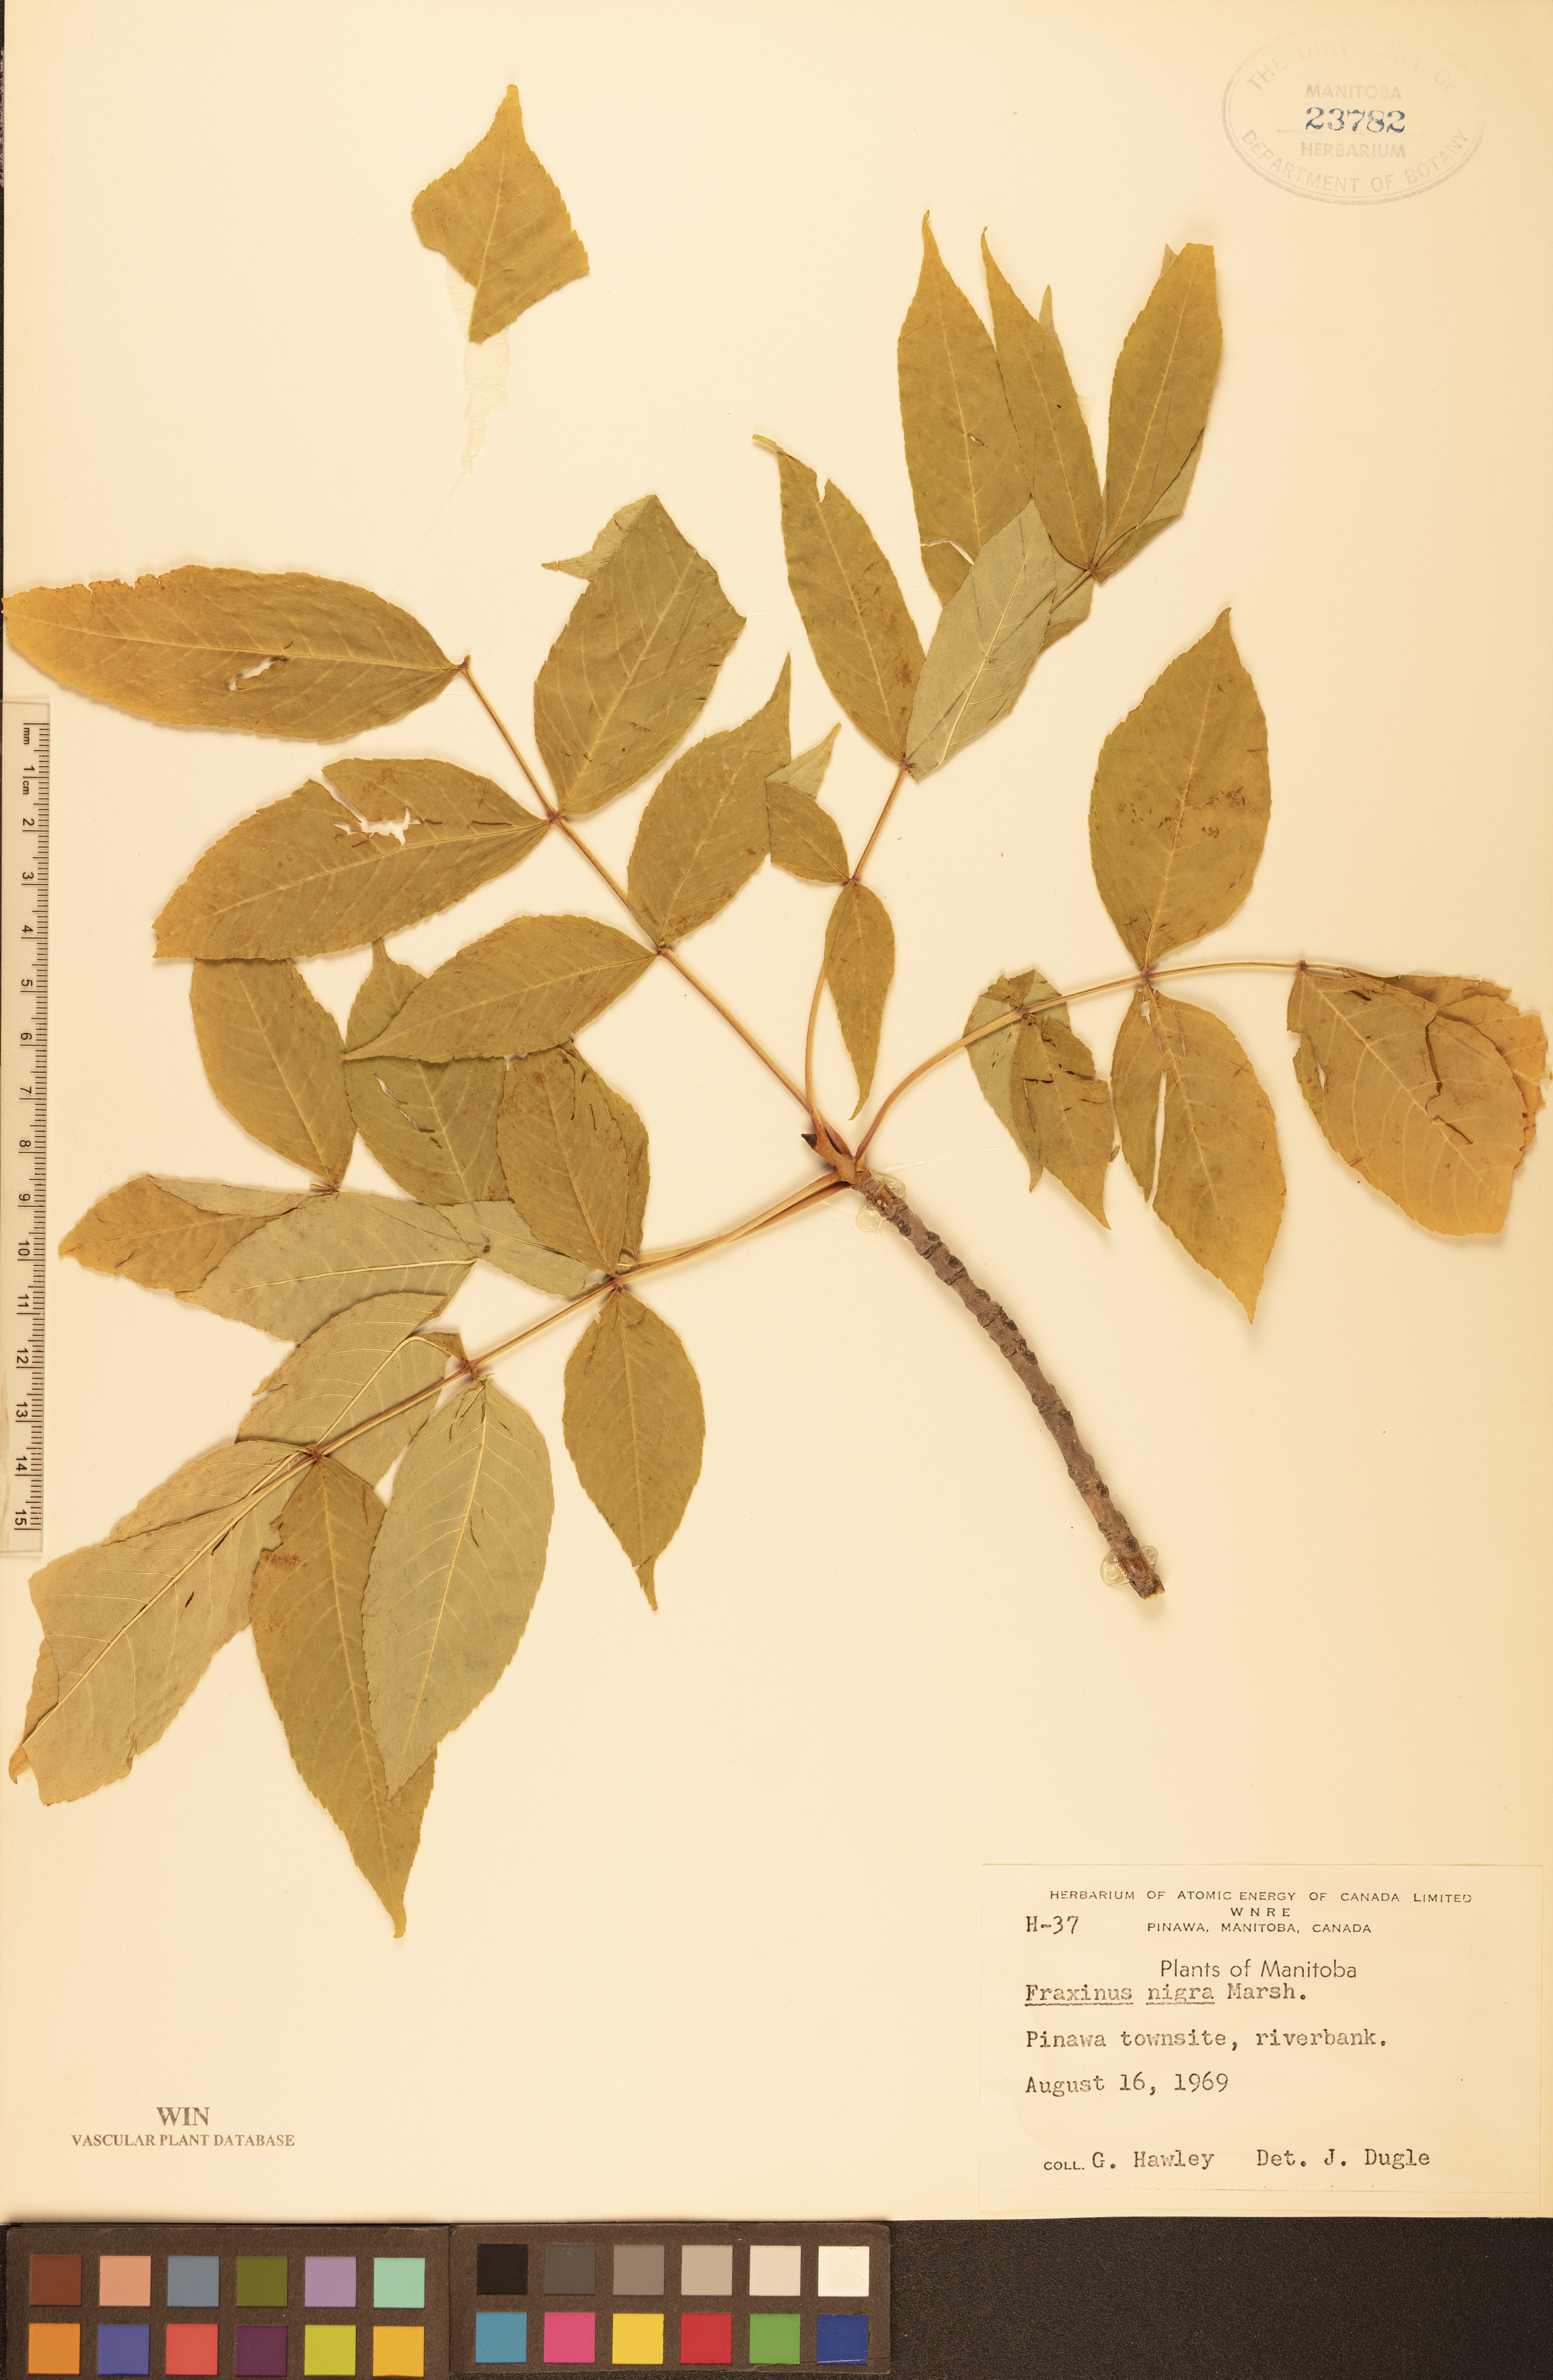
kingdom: Plantae
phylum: Tracheophyta
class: Magnoliopsida
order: Lamiales
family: Oleaceae
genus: Fraxinus
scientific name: Fraxinus nigra
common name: Black ash
